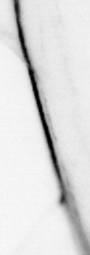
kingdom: Animalia
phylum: Chordata
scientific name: Chordata
